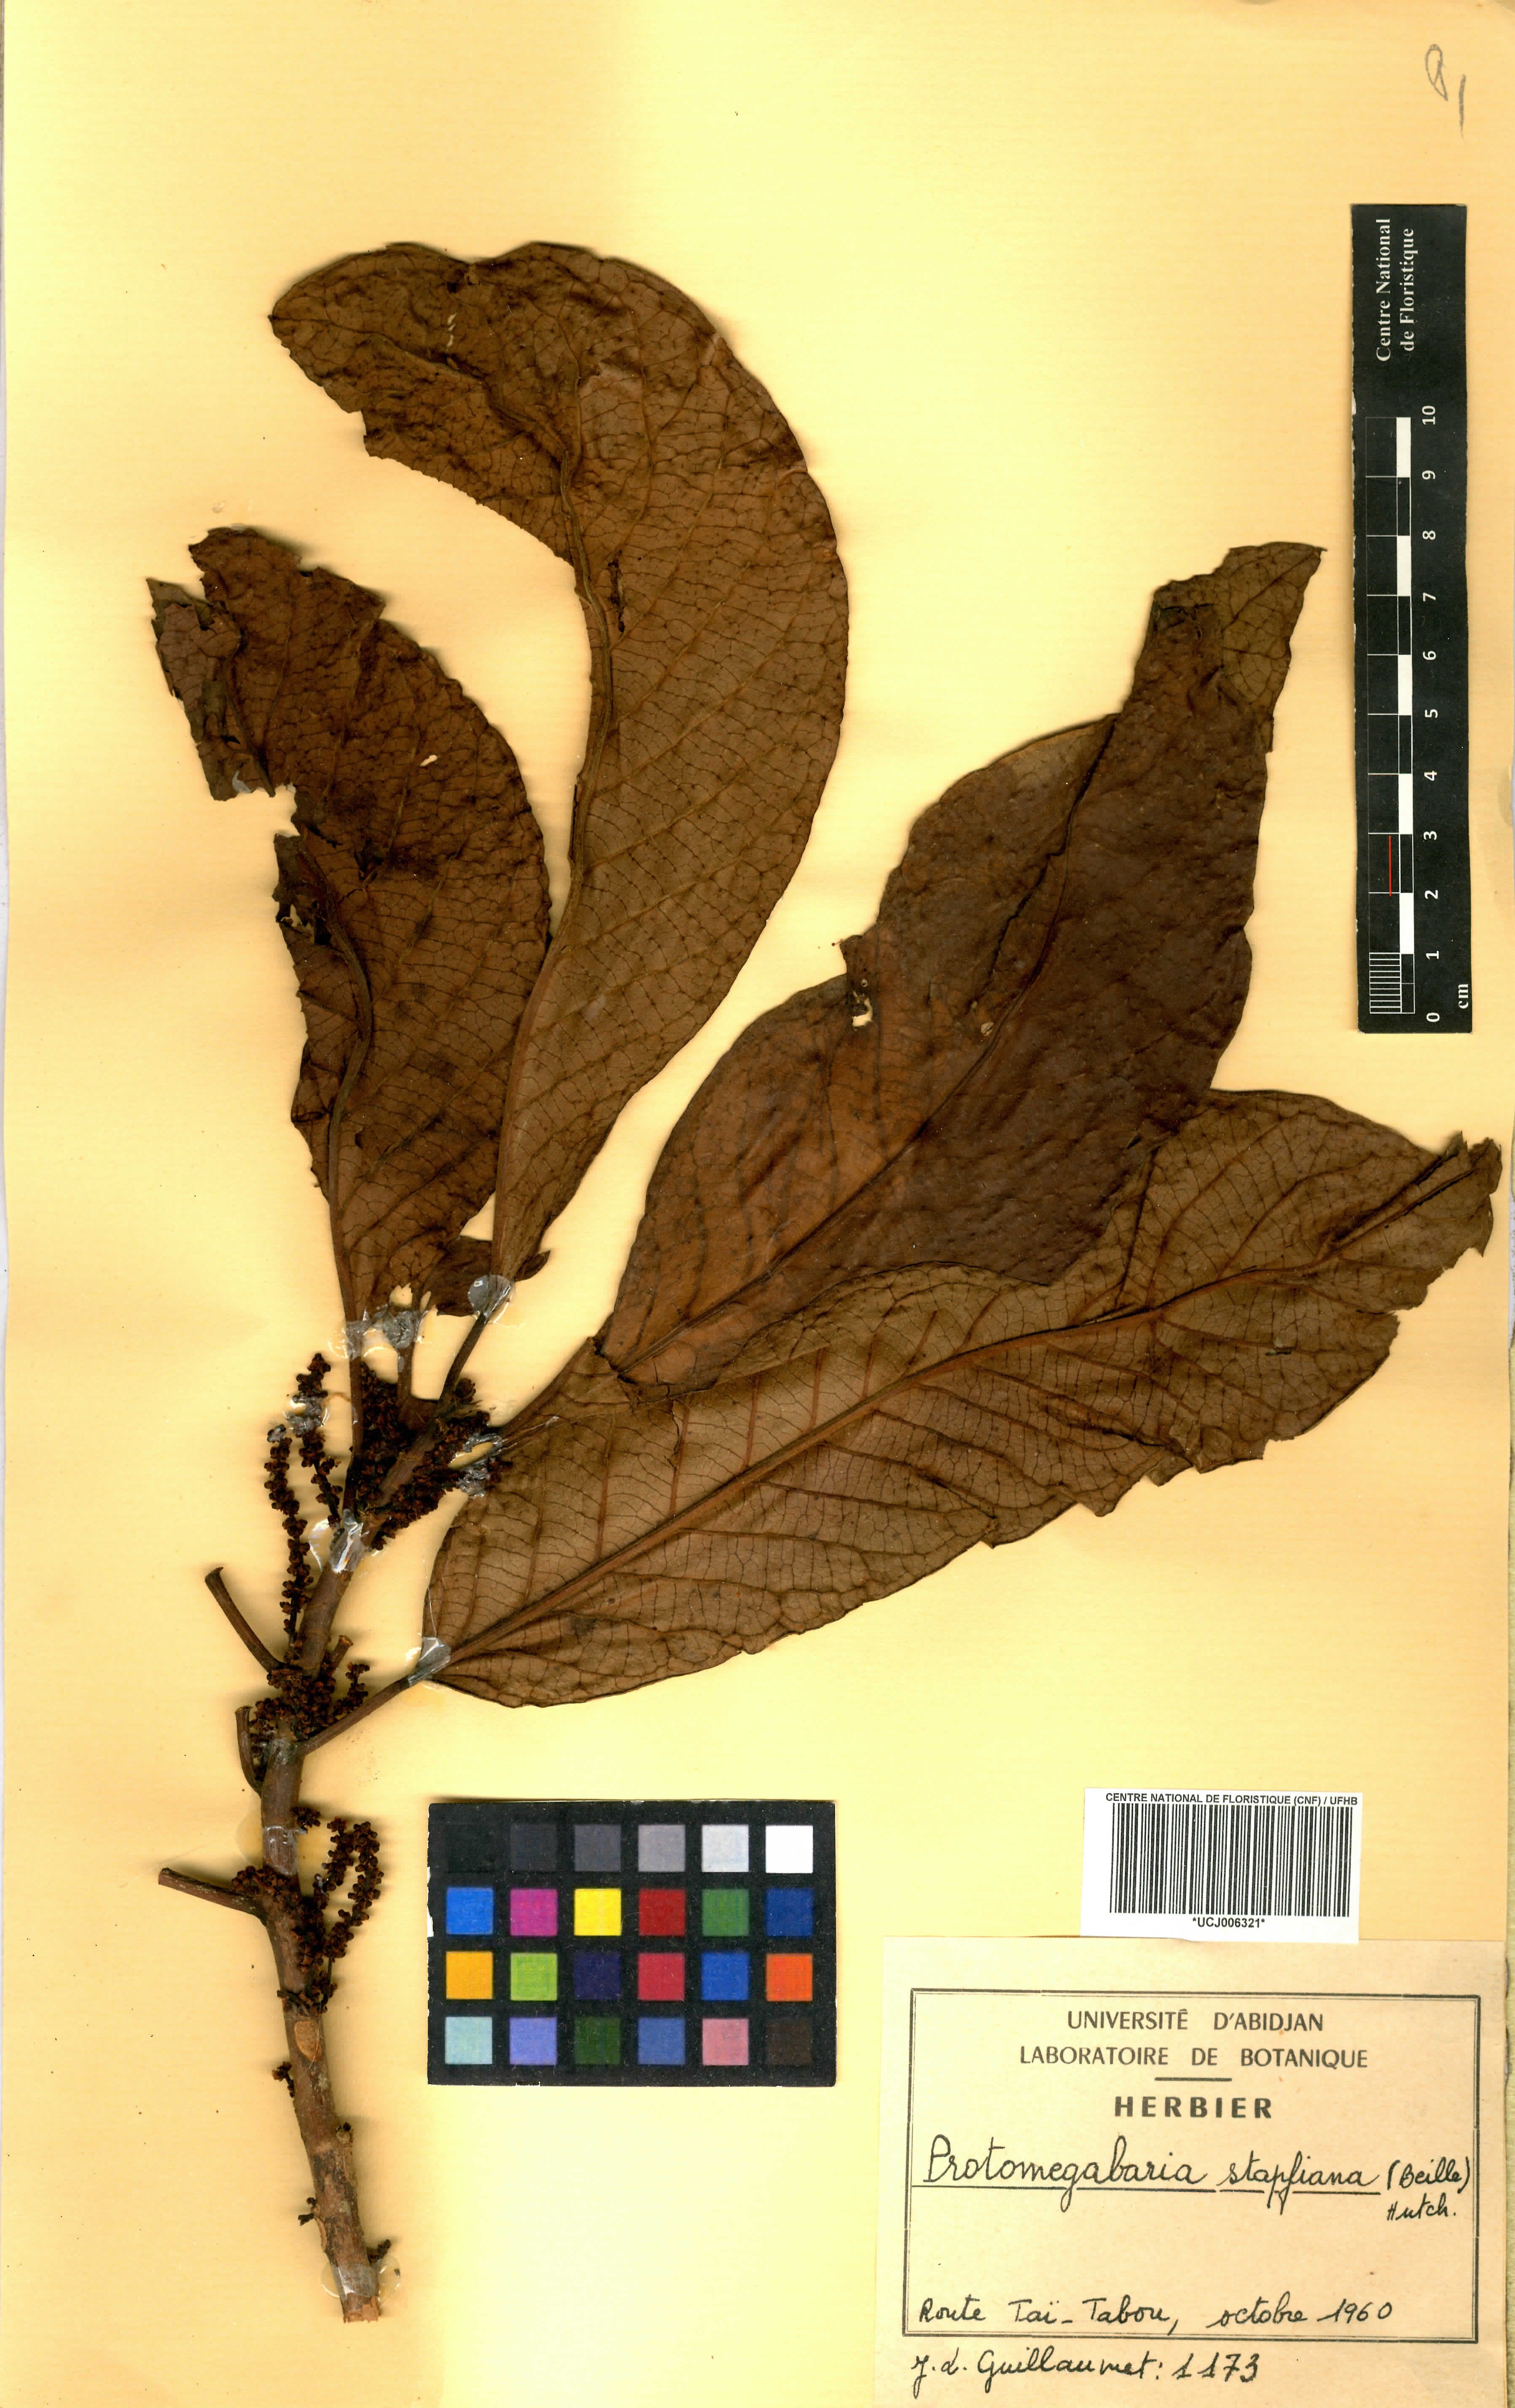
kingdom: Plantae
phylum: Tracheophyta
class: Magnoliopsida
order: Malpighiales
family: Phyllanthaceae
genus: Protomegabaria
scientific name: Protomegabaria stapfiana
